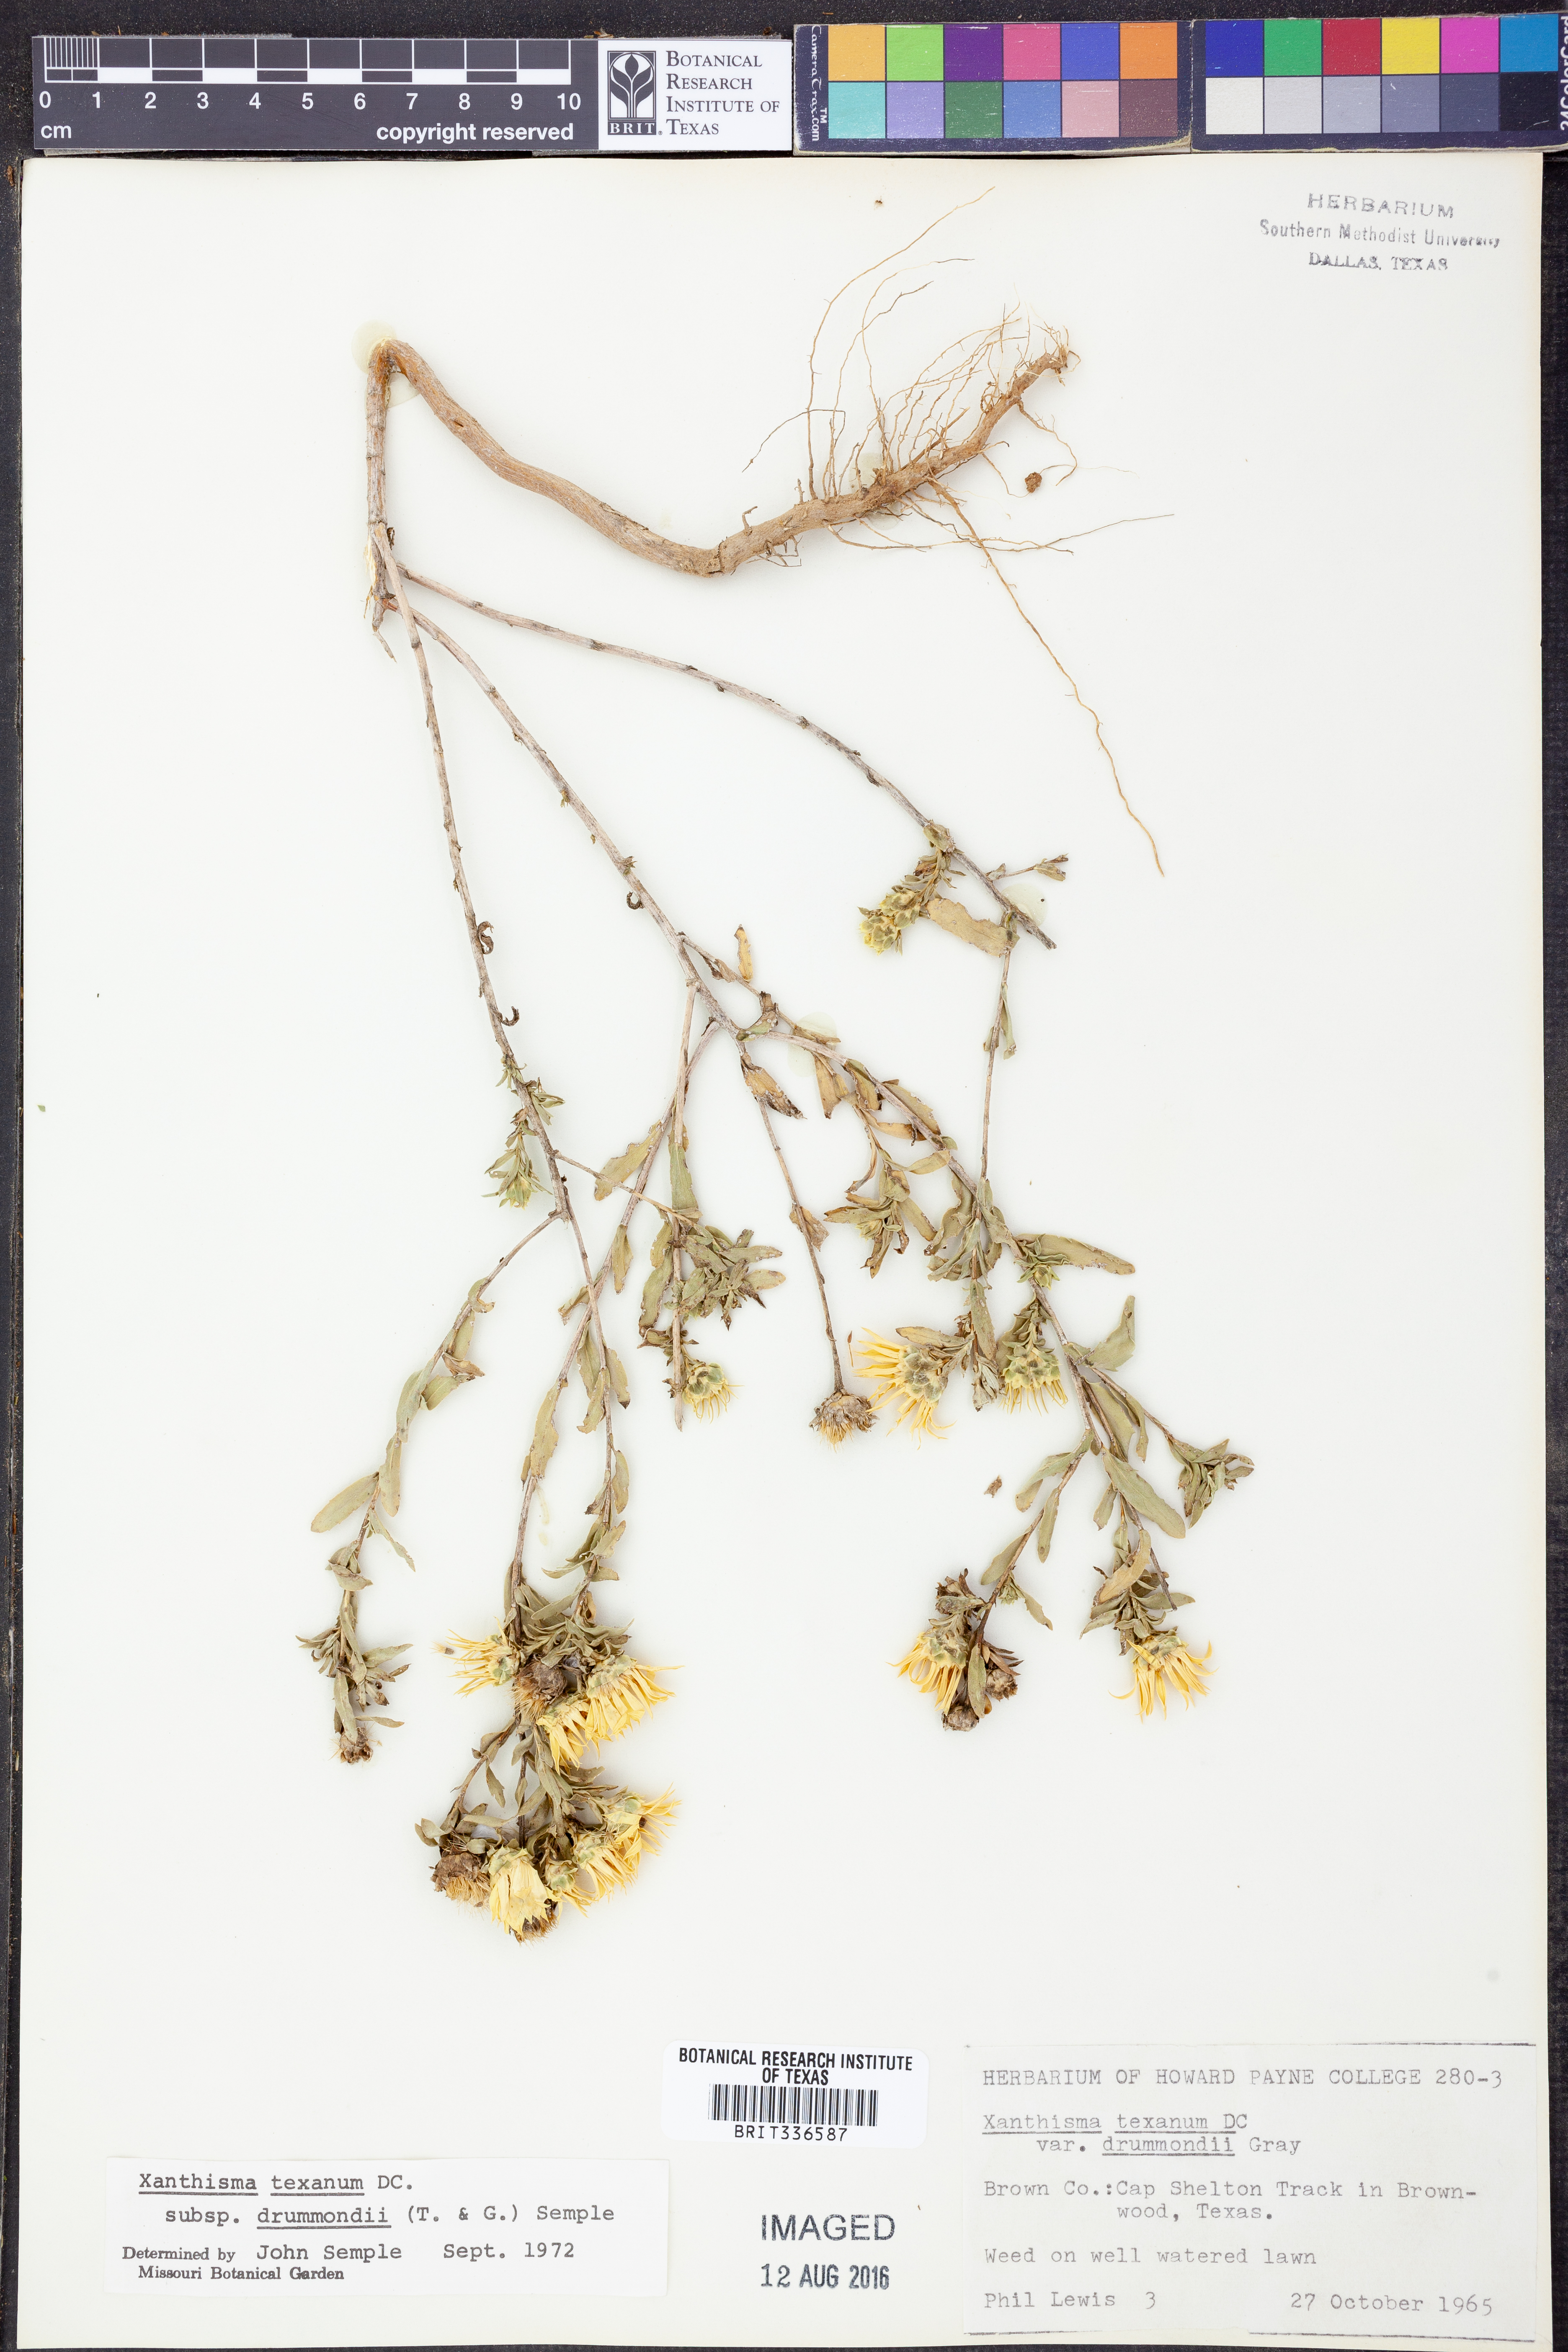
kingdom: Plantae
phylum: Tracheophyta
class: Magnoliopsida
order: Asterales
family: Asteraceae
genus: Xanthisma
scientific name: Xanthisma texanum
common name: Texas sleepy daisy
